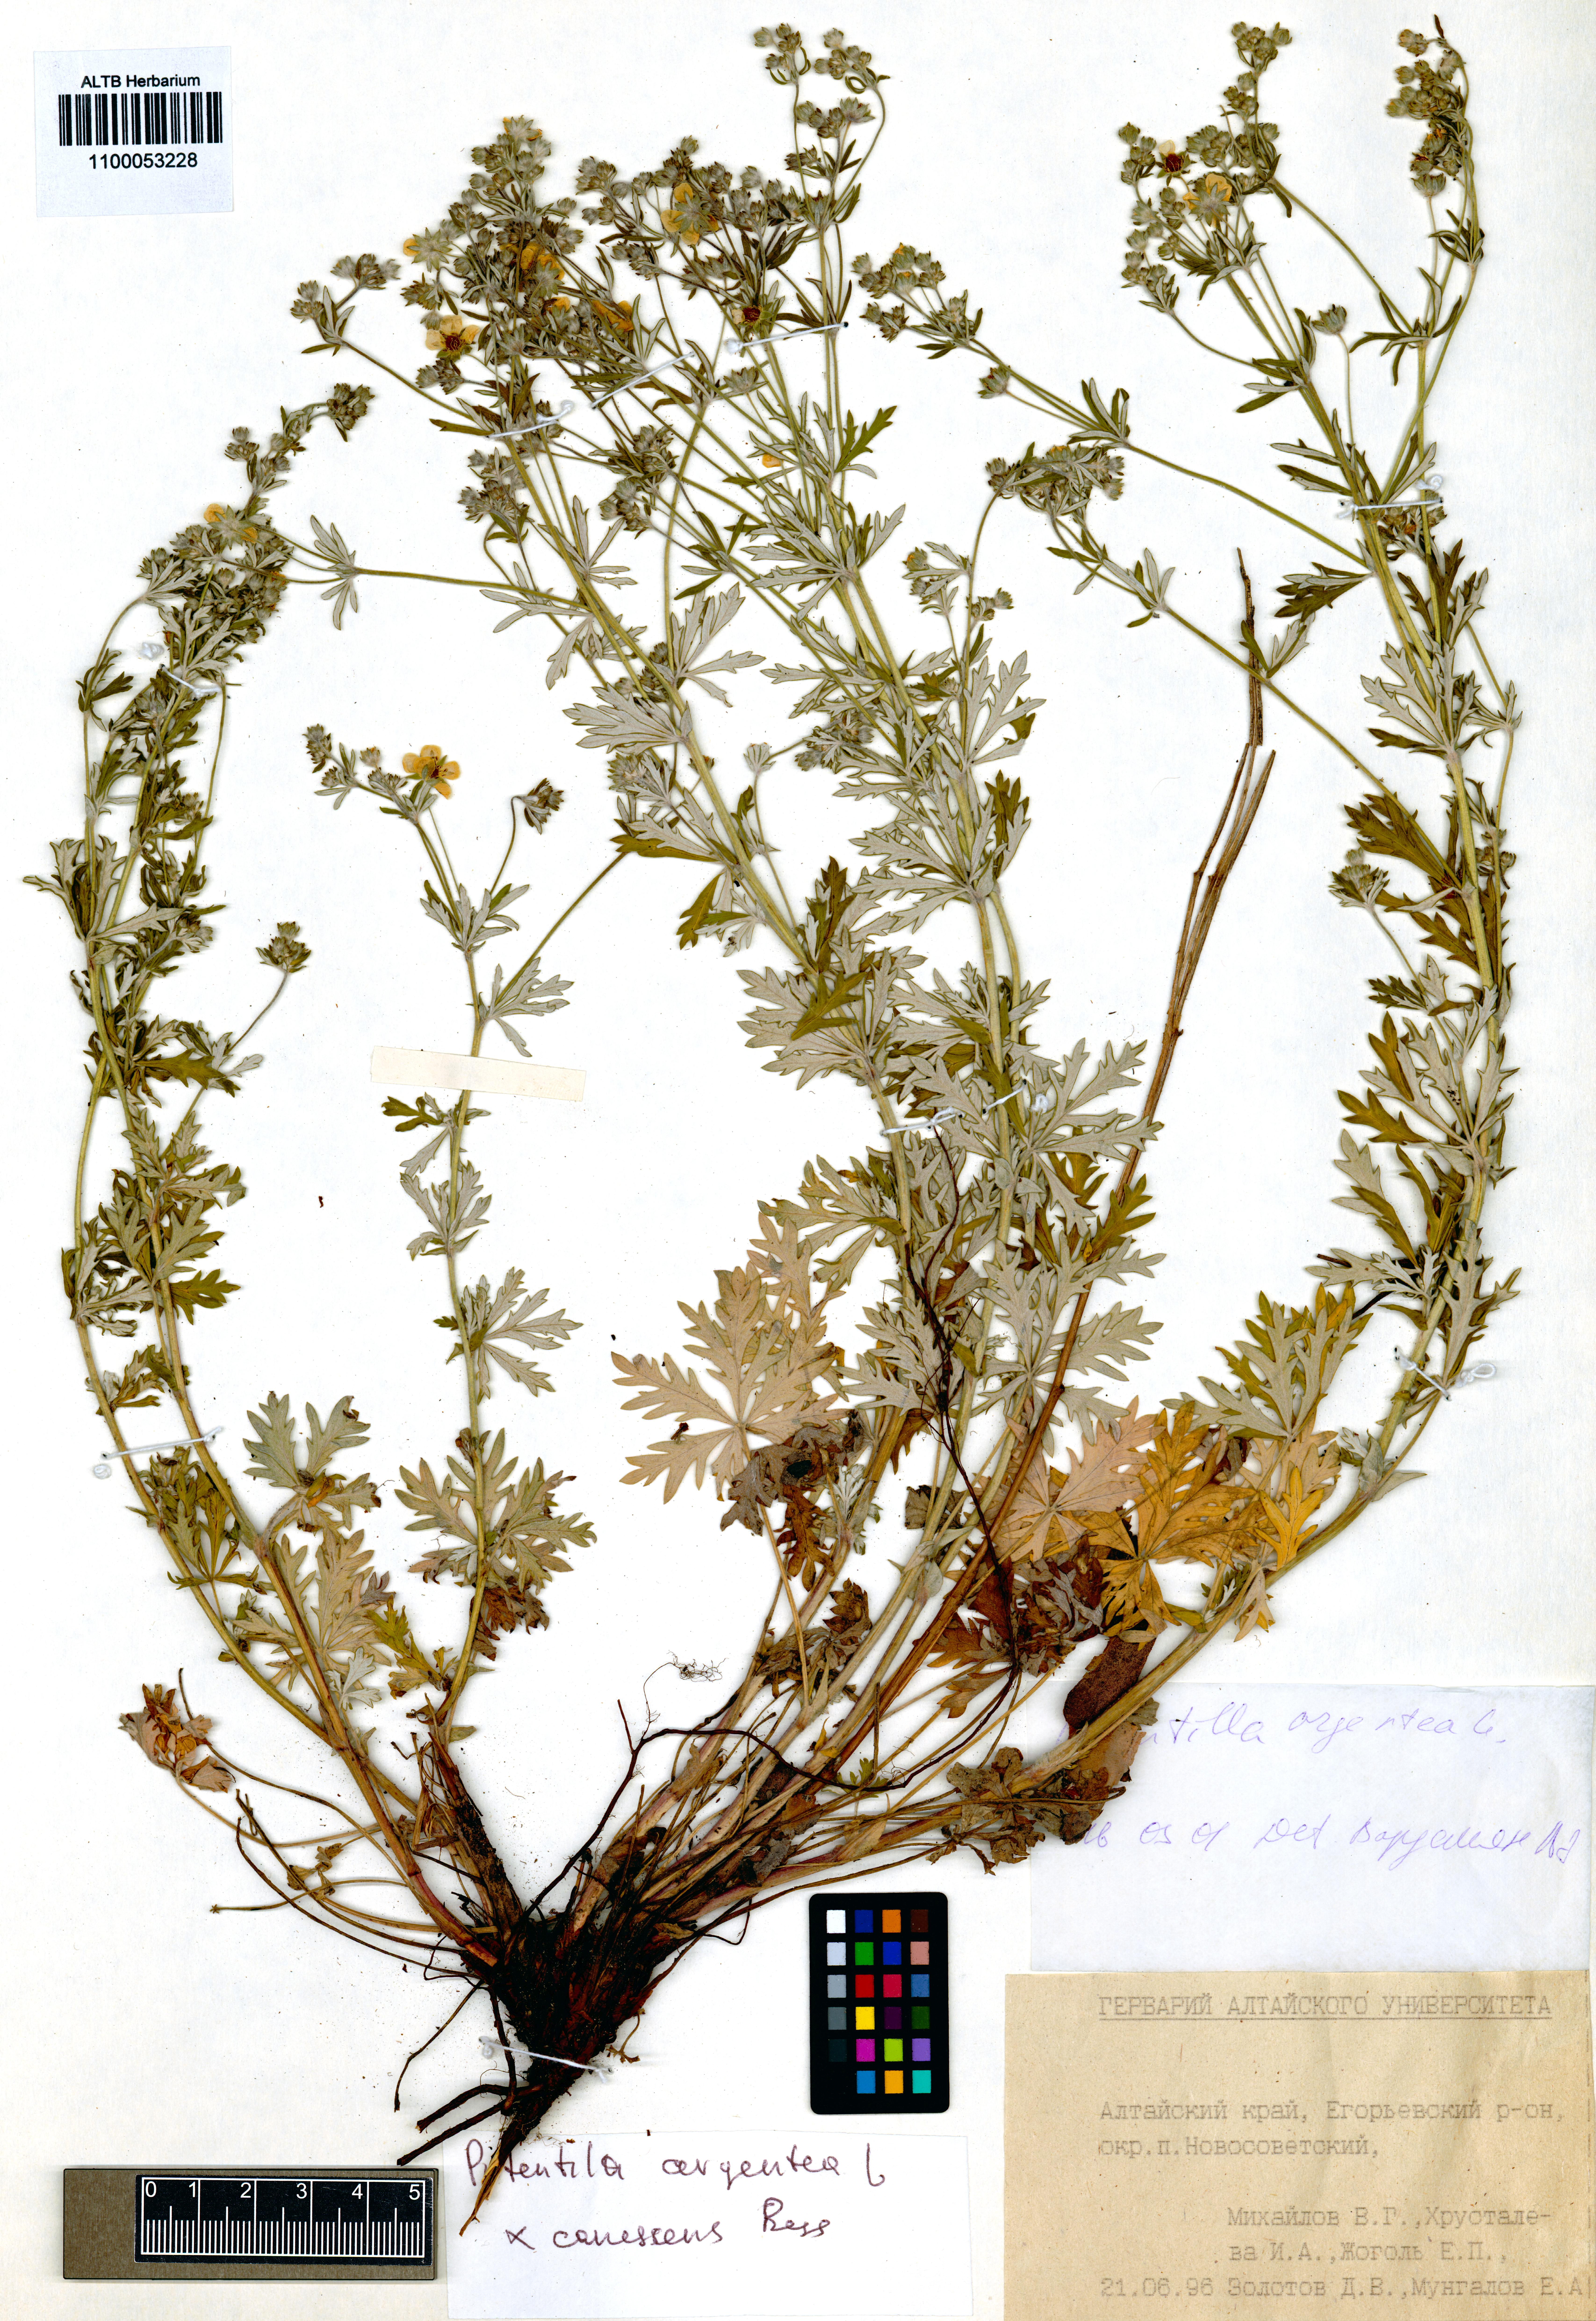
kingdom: Plantae
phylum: Tracheophyta
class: Magnoliopsida
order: Rosales
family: Rosaceae
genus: Potentilla
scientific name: Potentilla argentea
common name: Hoary cinquefoil
